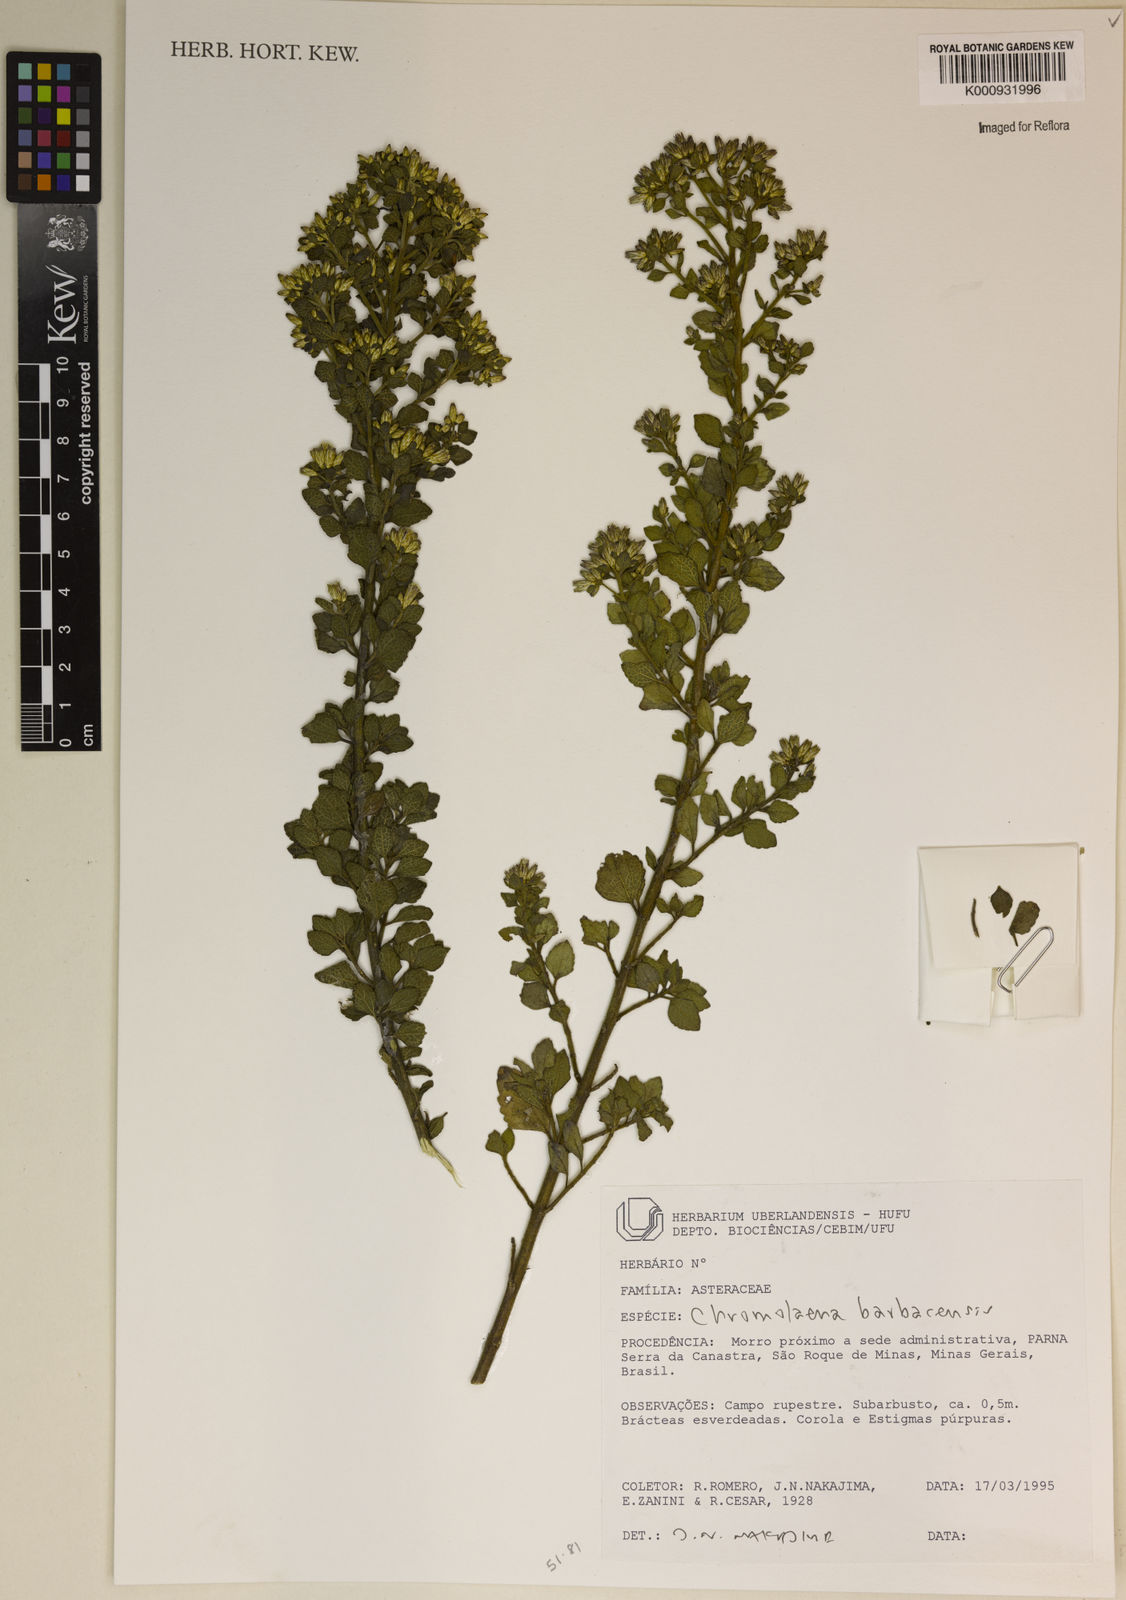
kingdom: Plantae
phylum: Tracheophyta
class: Magnoliopsida
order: Asterales
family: Asteraceae
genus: Chromolaena
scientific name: Chromolaena barbacensis
